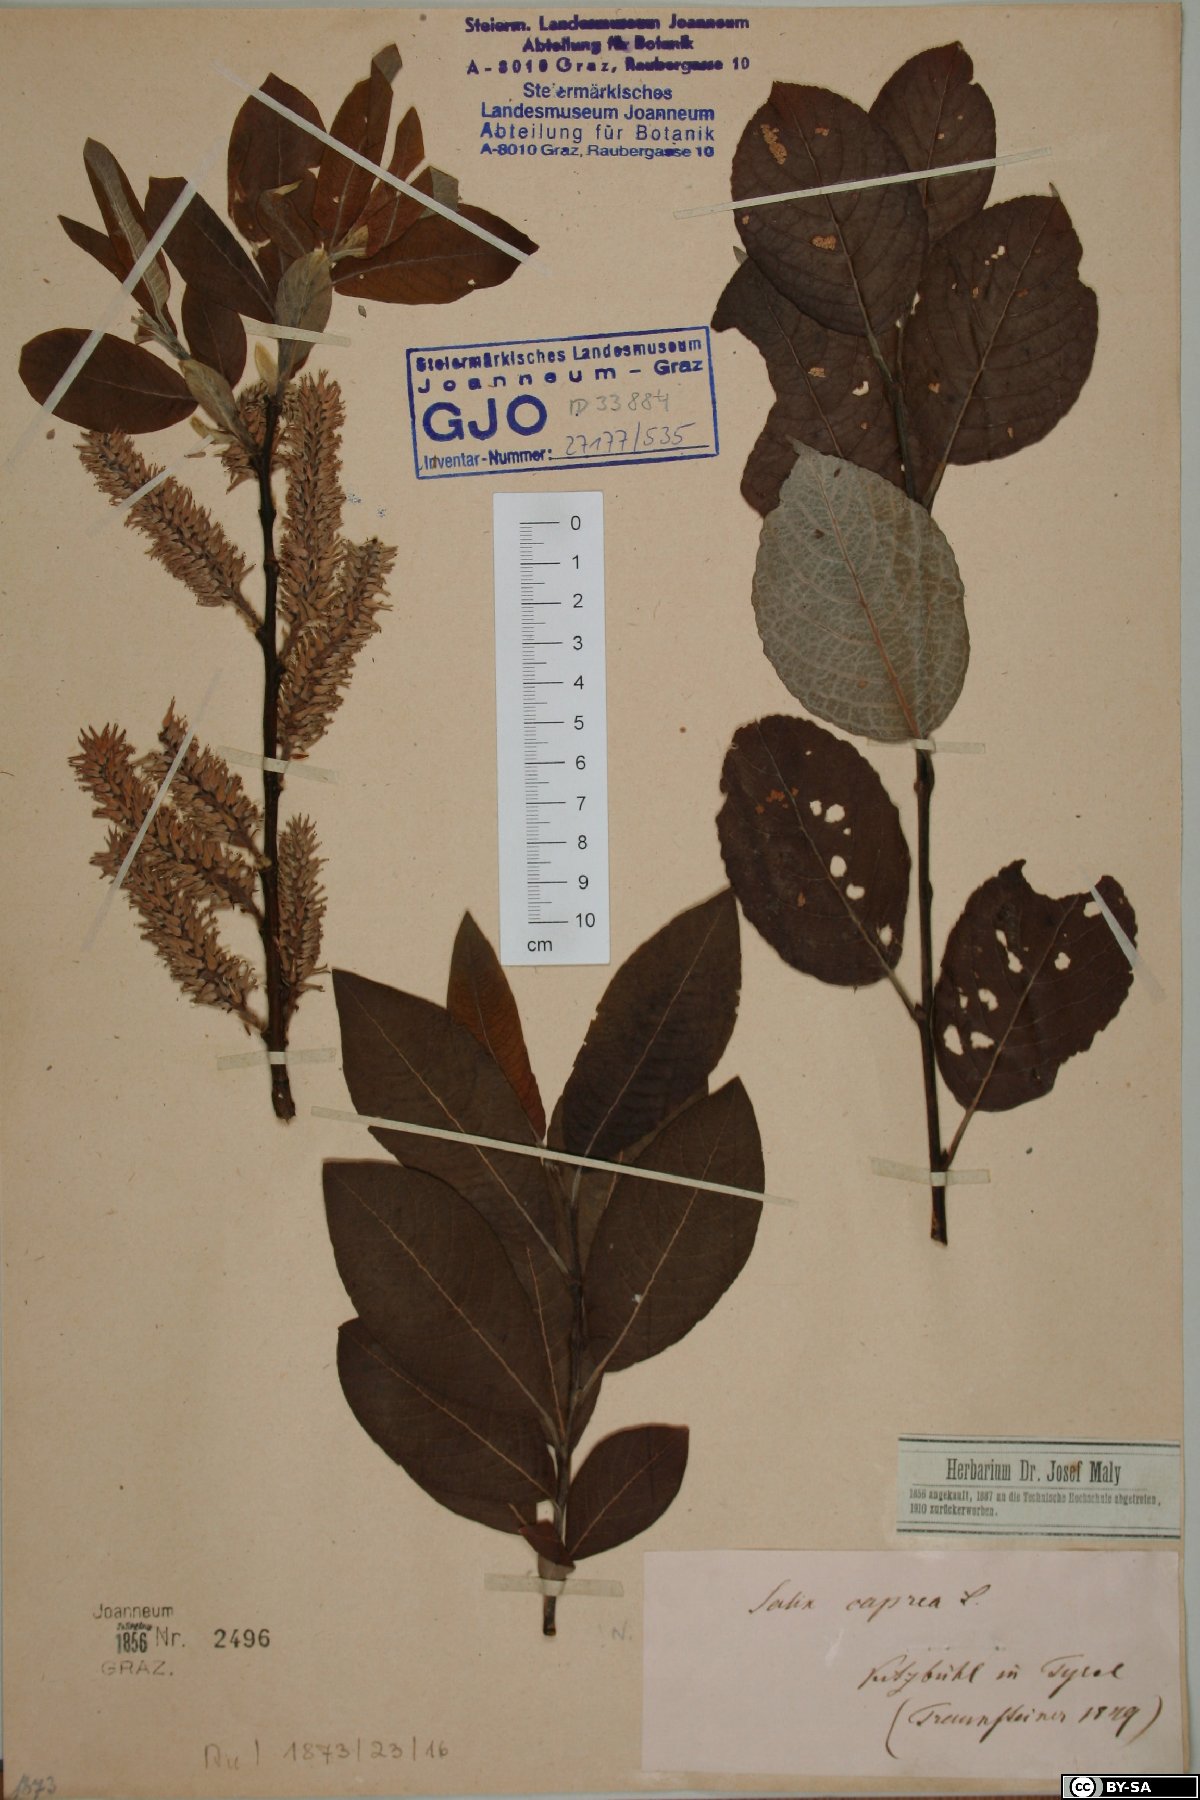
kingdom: Plantae
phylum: Tracheophyta
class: Magnoliopsida
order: Malpighiales
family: Salicaceae
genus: Salix
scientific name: Salix caprea
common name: Goat willow
